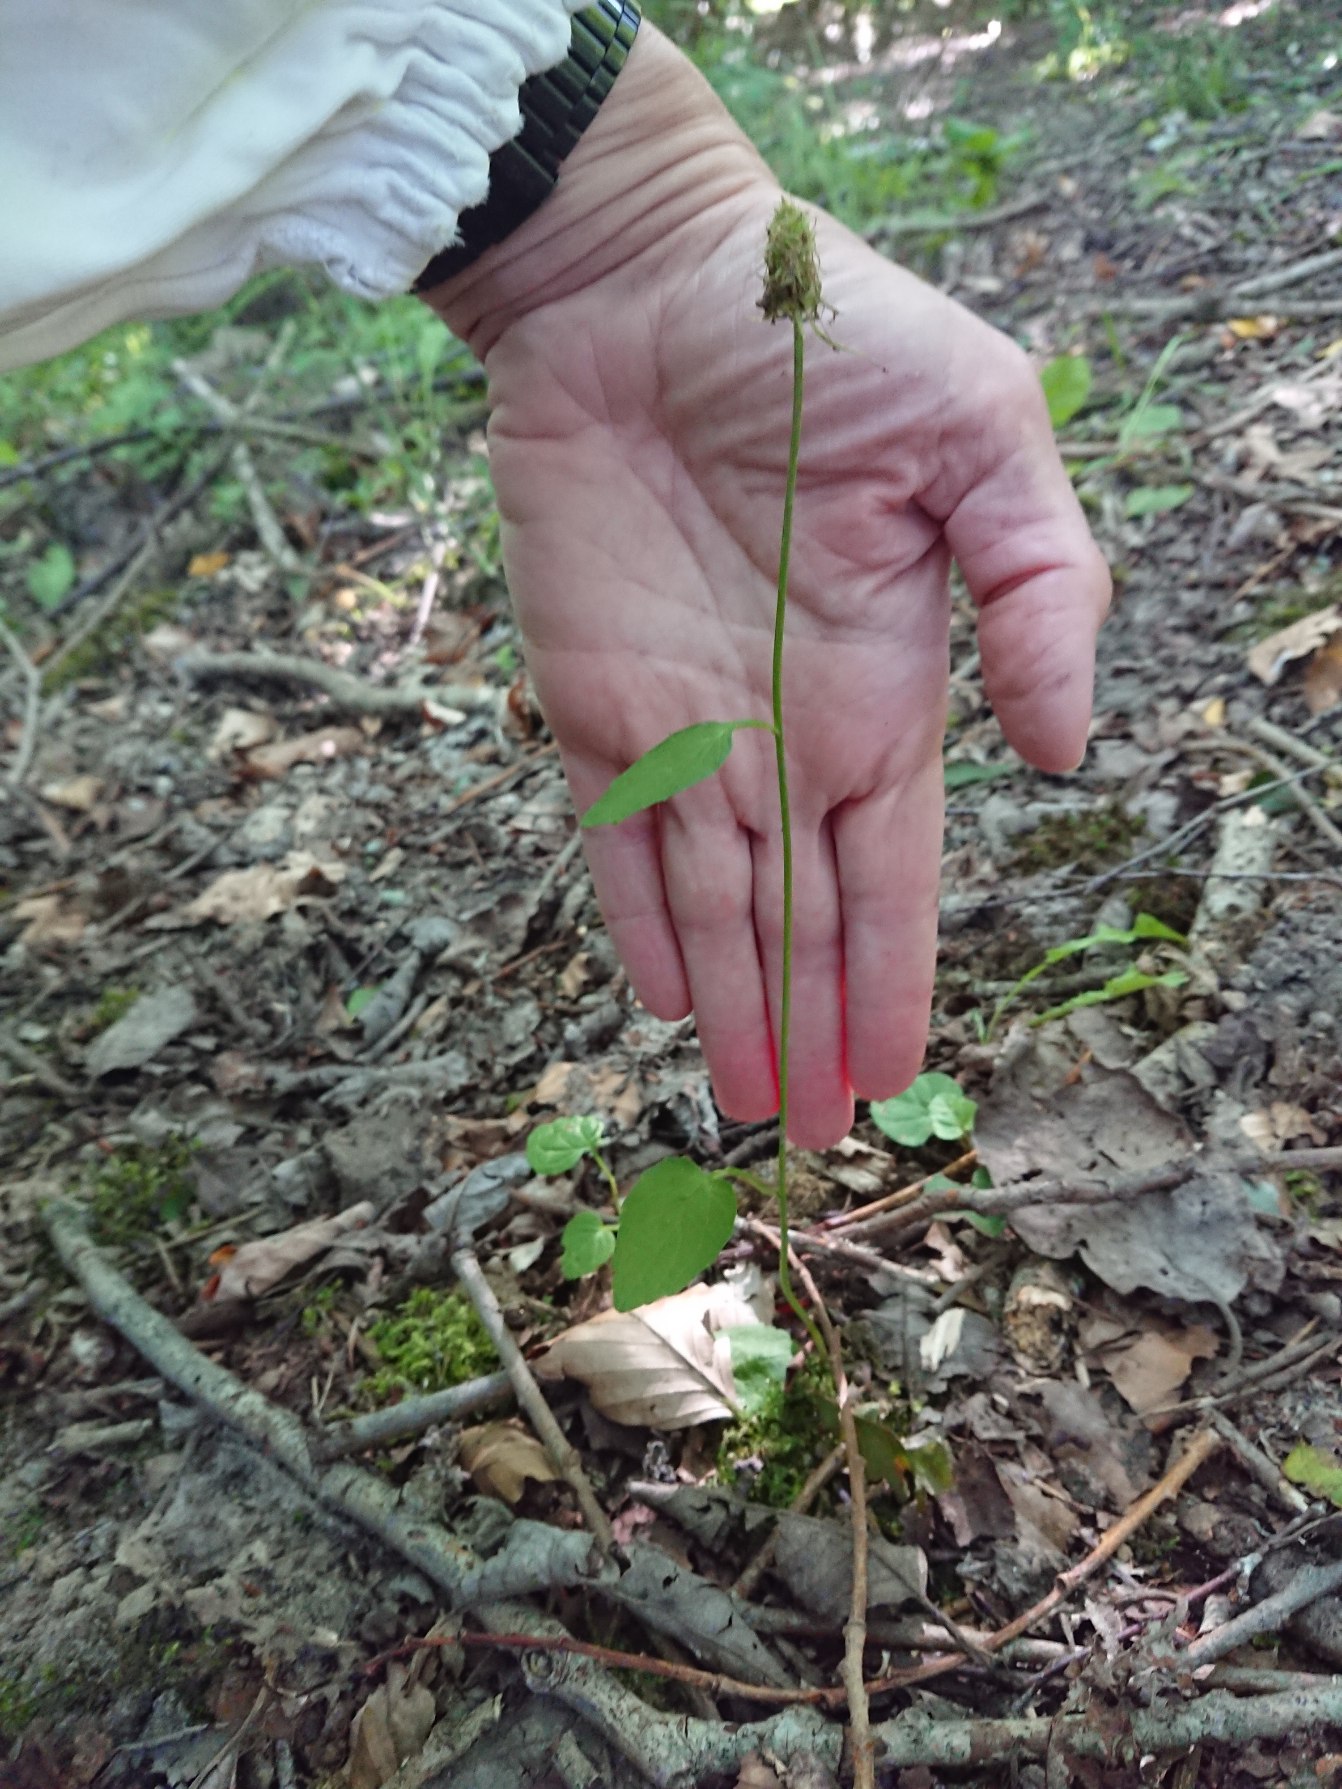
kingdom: Plantae
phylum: Tracheophyta
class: Magnoliopsida
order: Asterales
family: Campanulaceae
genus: Phyteuma
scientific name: Phyteuma spicatum
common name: Aks-rapunsel
